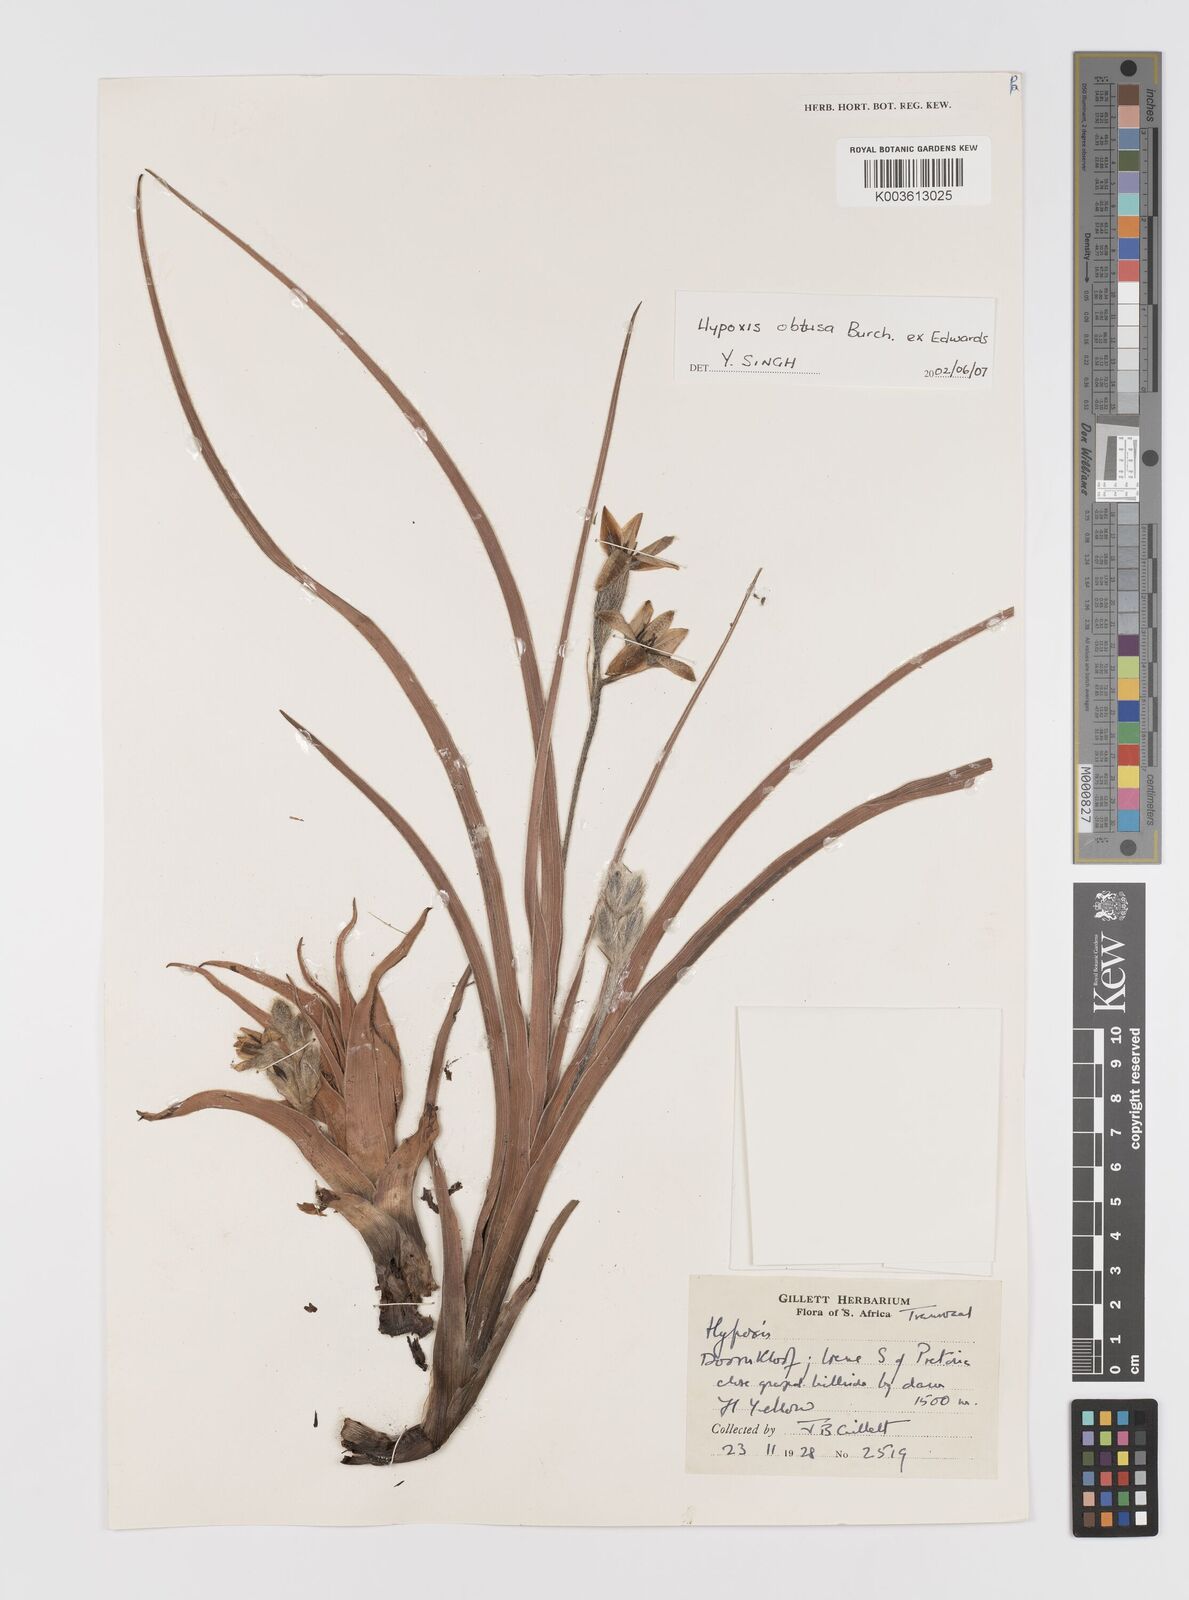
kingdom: Plantae
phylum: Tracheophyta
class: Liliopsida
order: Asparagales
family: Hypoxidaceae
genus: Hypoxis
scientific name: Hypoxis obtusa
